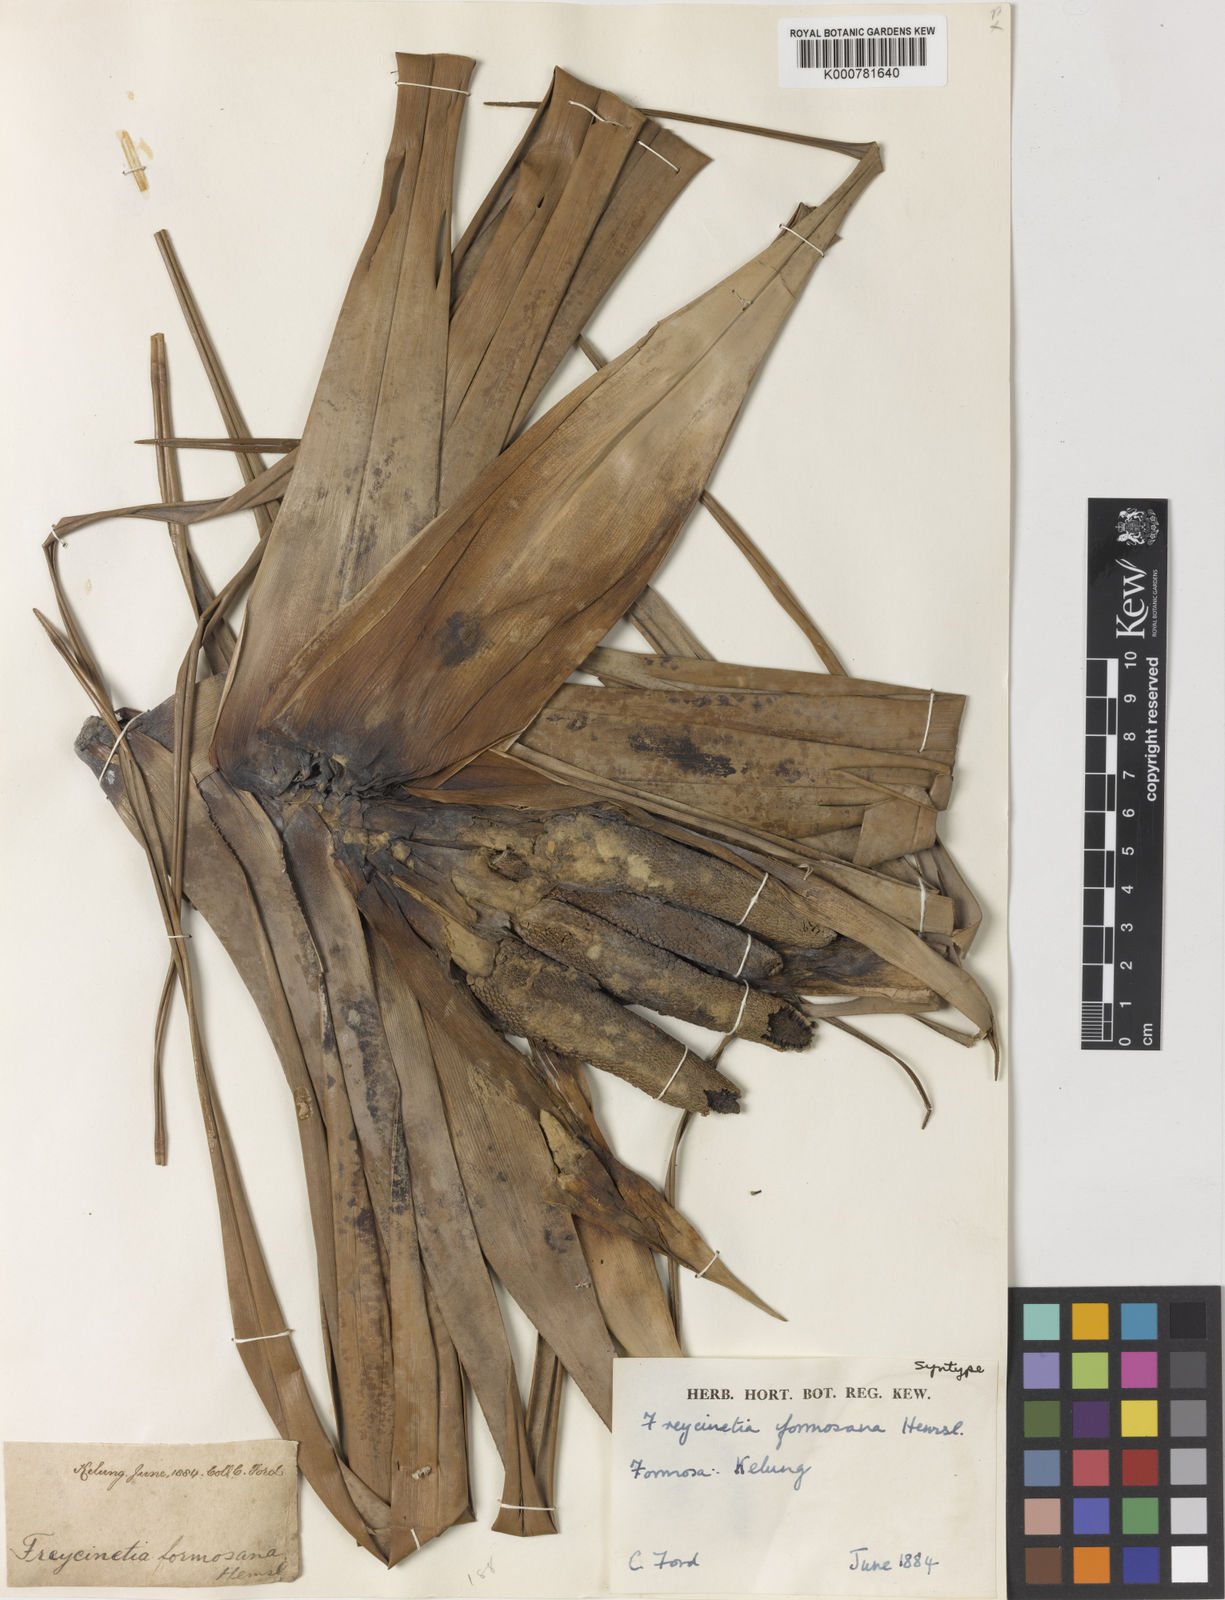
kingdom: Plantae
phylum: Tracheophyta
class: Liliopsida
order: Pandanales
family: Pandanaceae
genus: Freycinetia
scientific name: Freycinetia formosana
